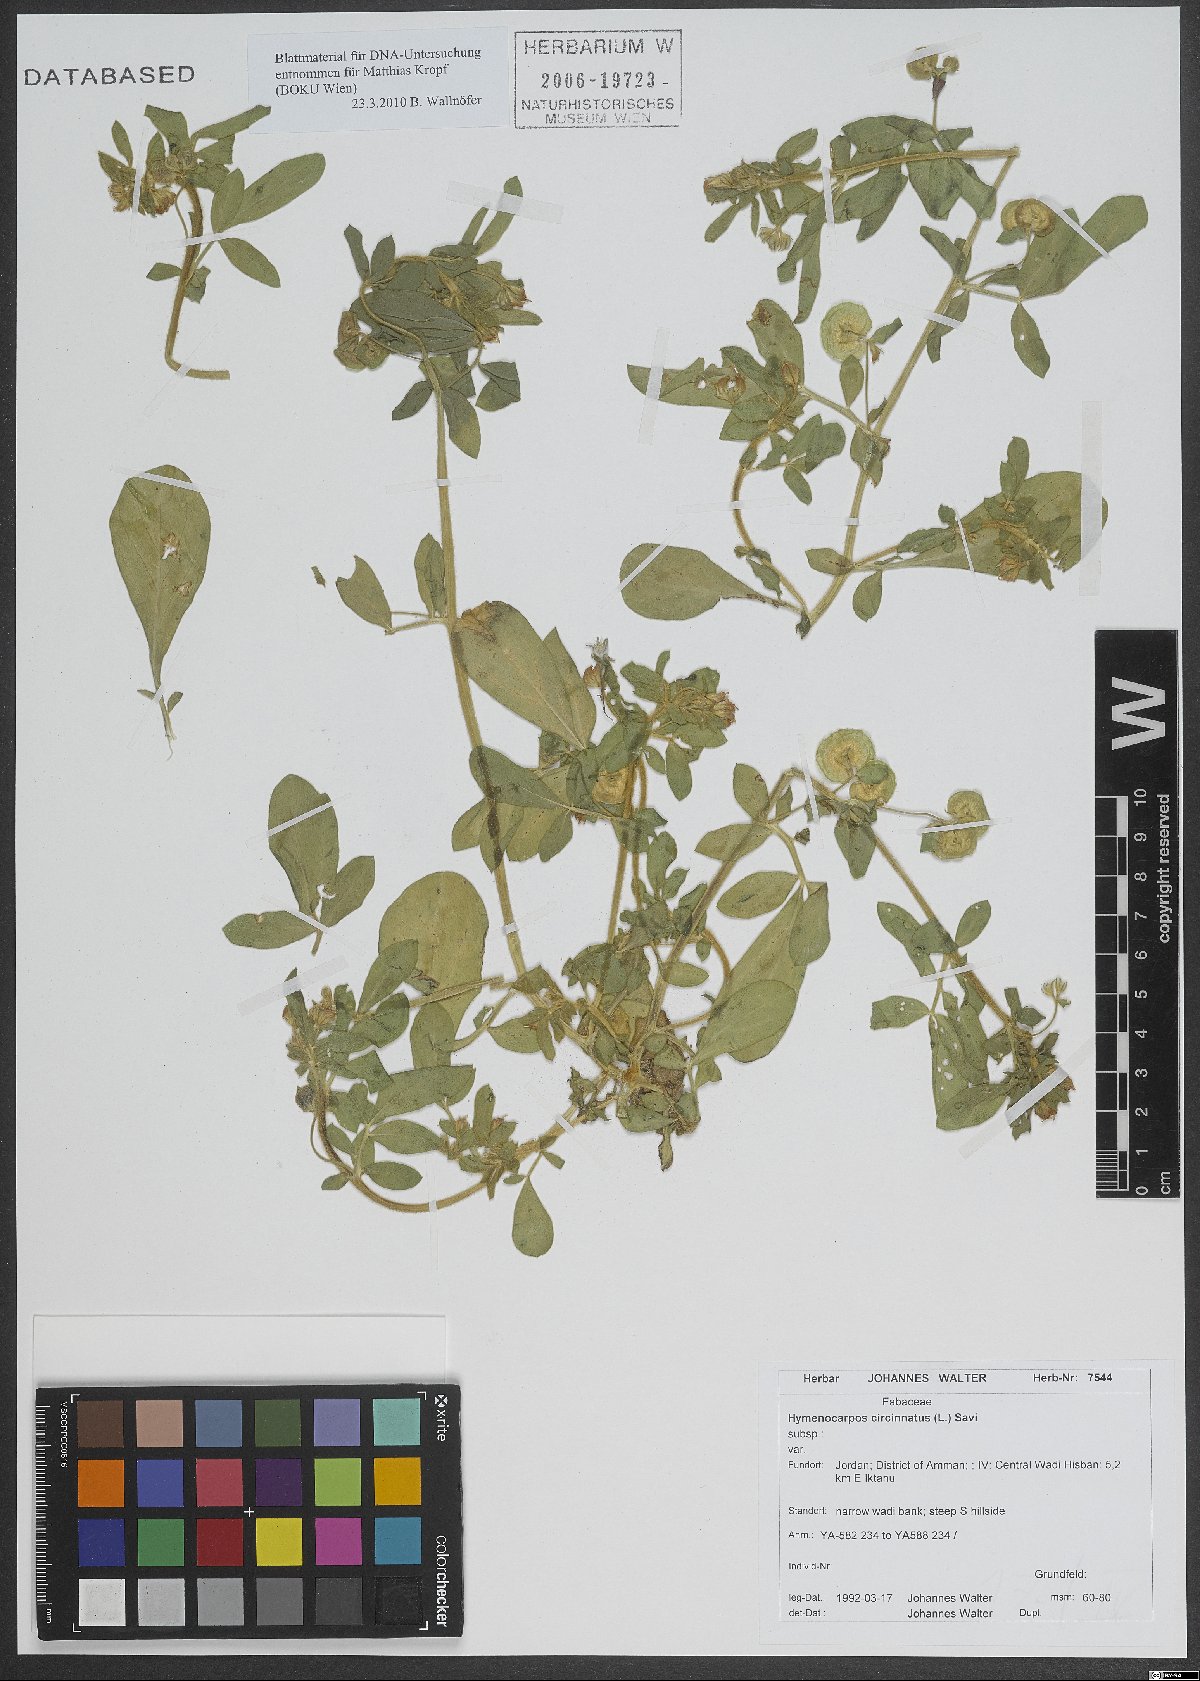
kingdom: Plantae
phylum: Tracheophyta
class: Magnoliopsida
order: Fabales
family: Fabaceae
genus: Anthyllis
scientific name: Anthyllis circinnata
